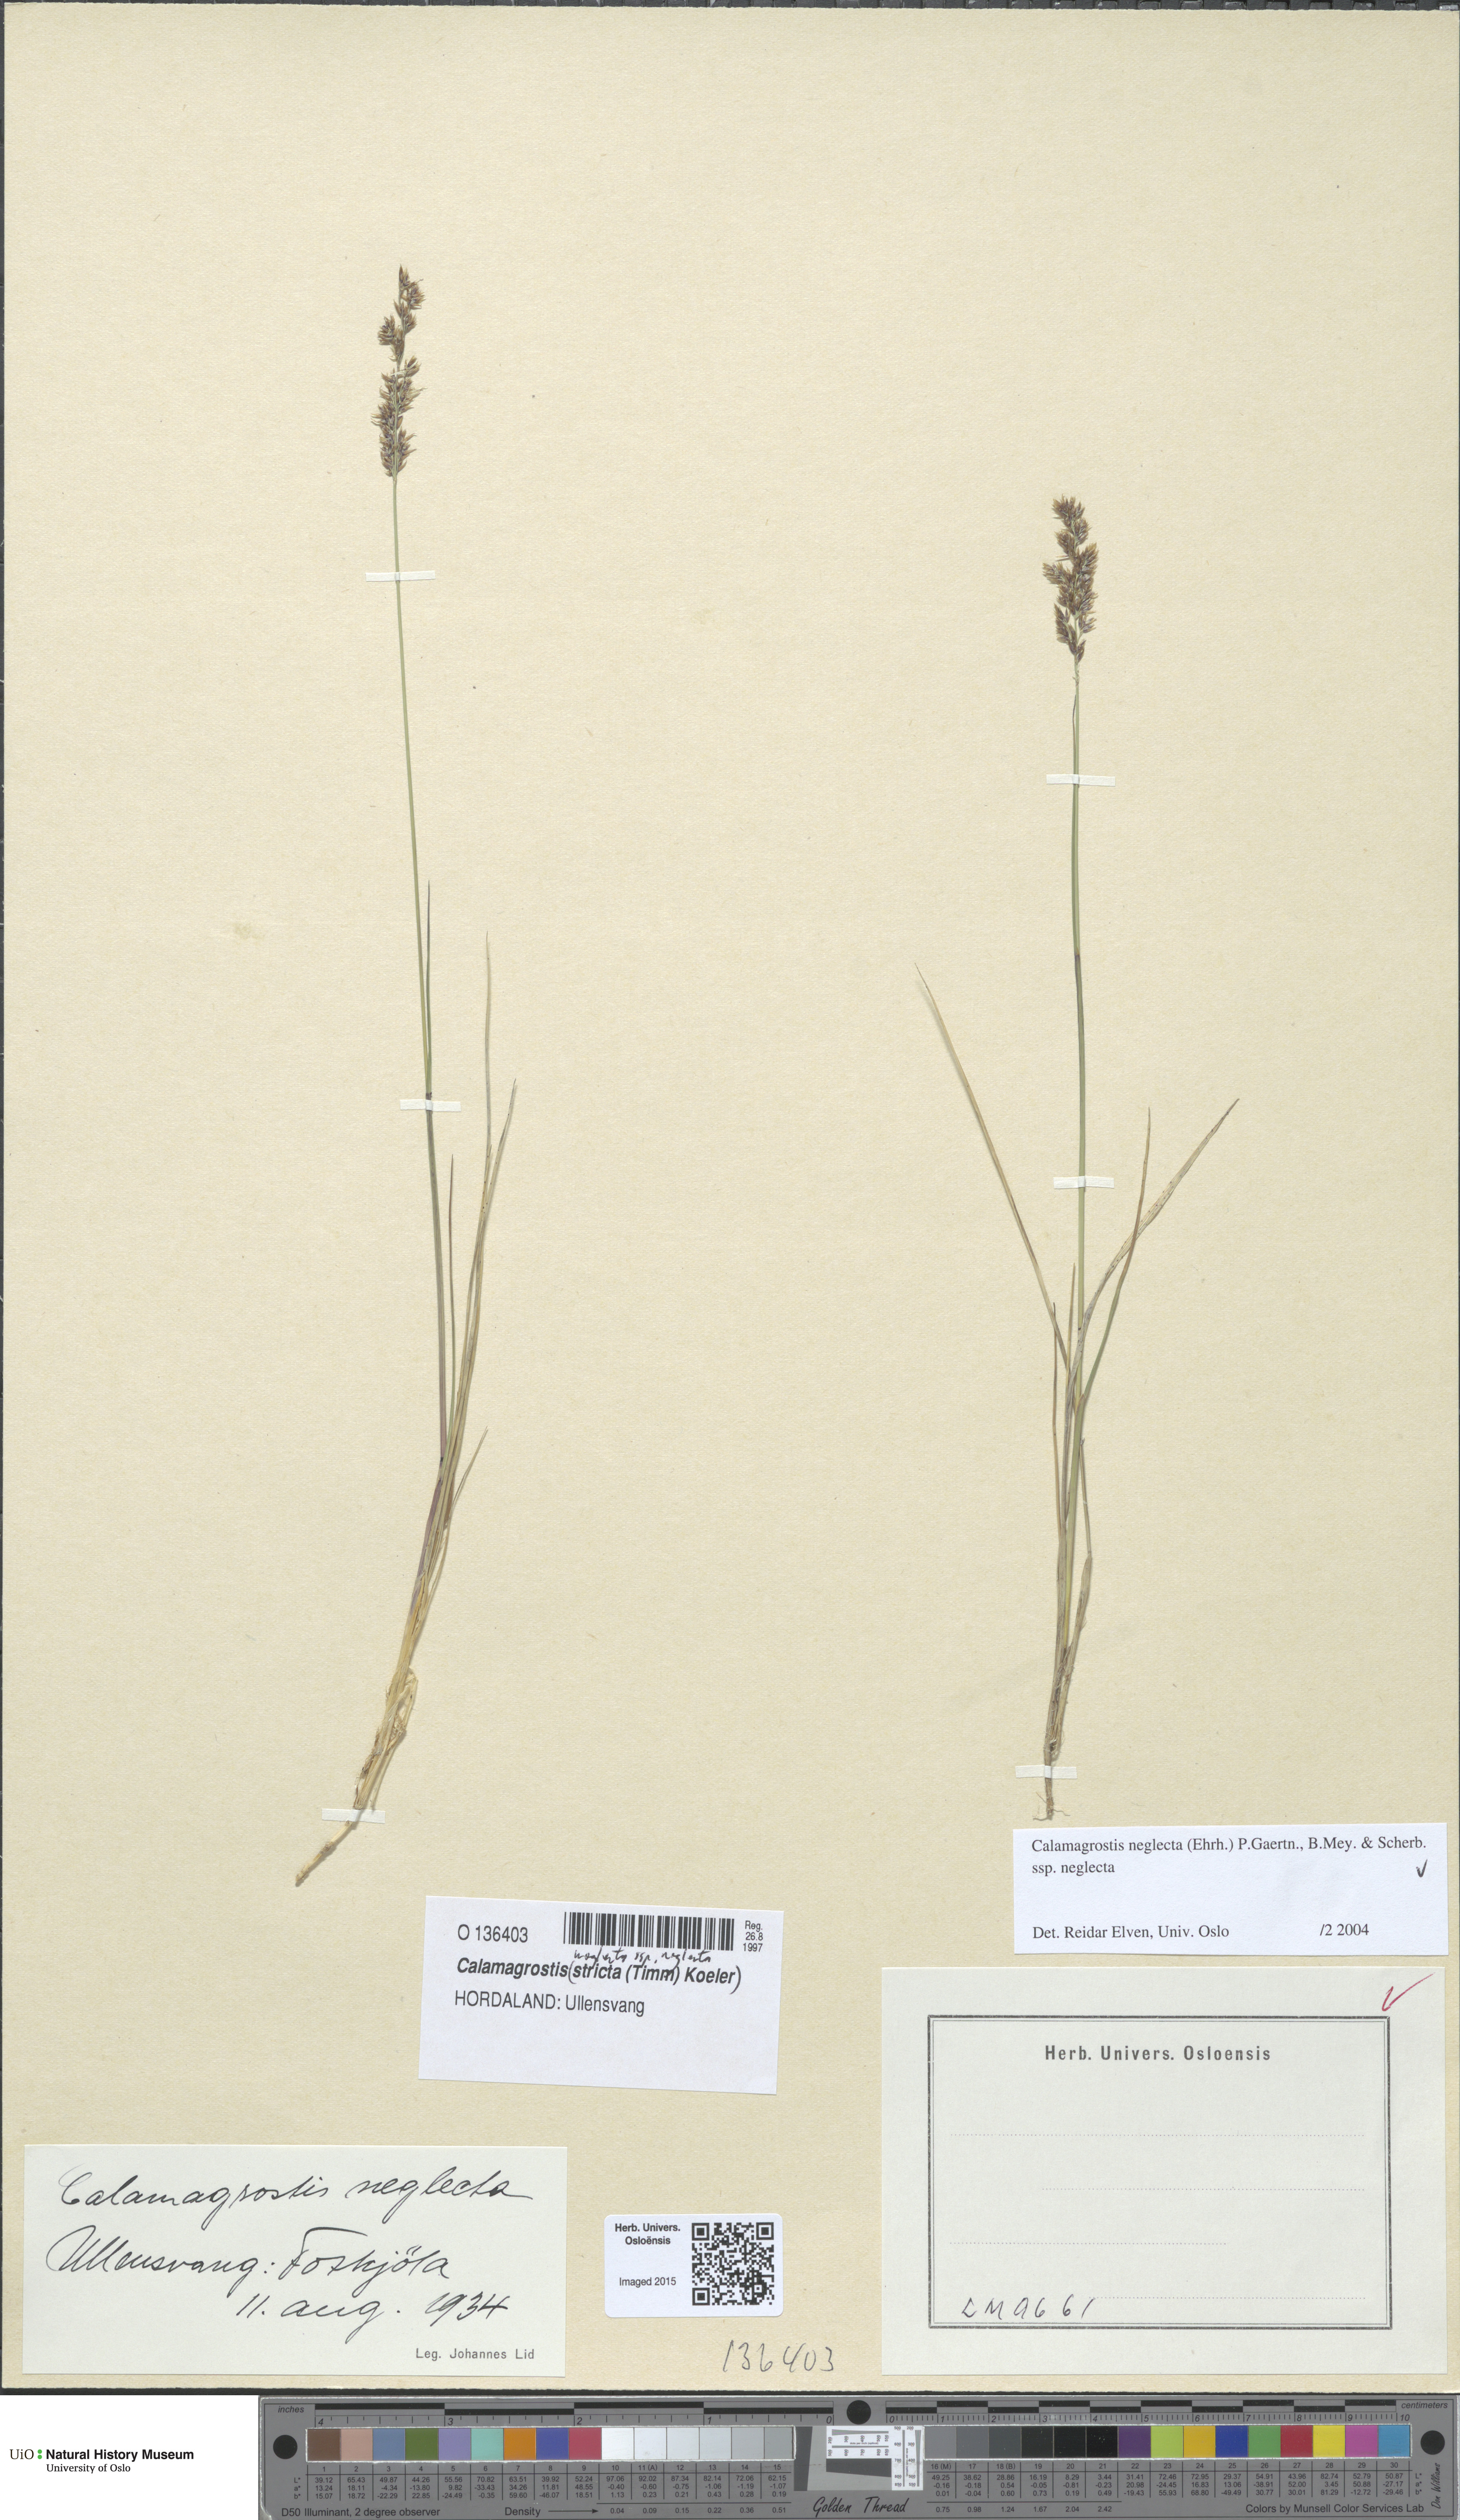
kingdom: Plantae
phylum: Tracheophyta
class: Liliopsida
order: Poales
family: Poaceae
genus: Achnatherum
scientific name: Achnatherum calamagrostis
